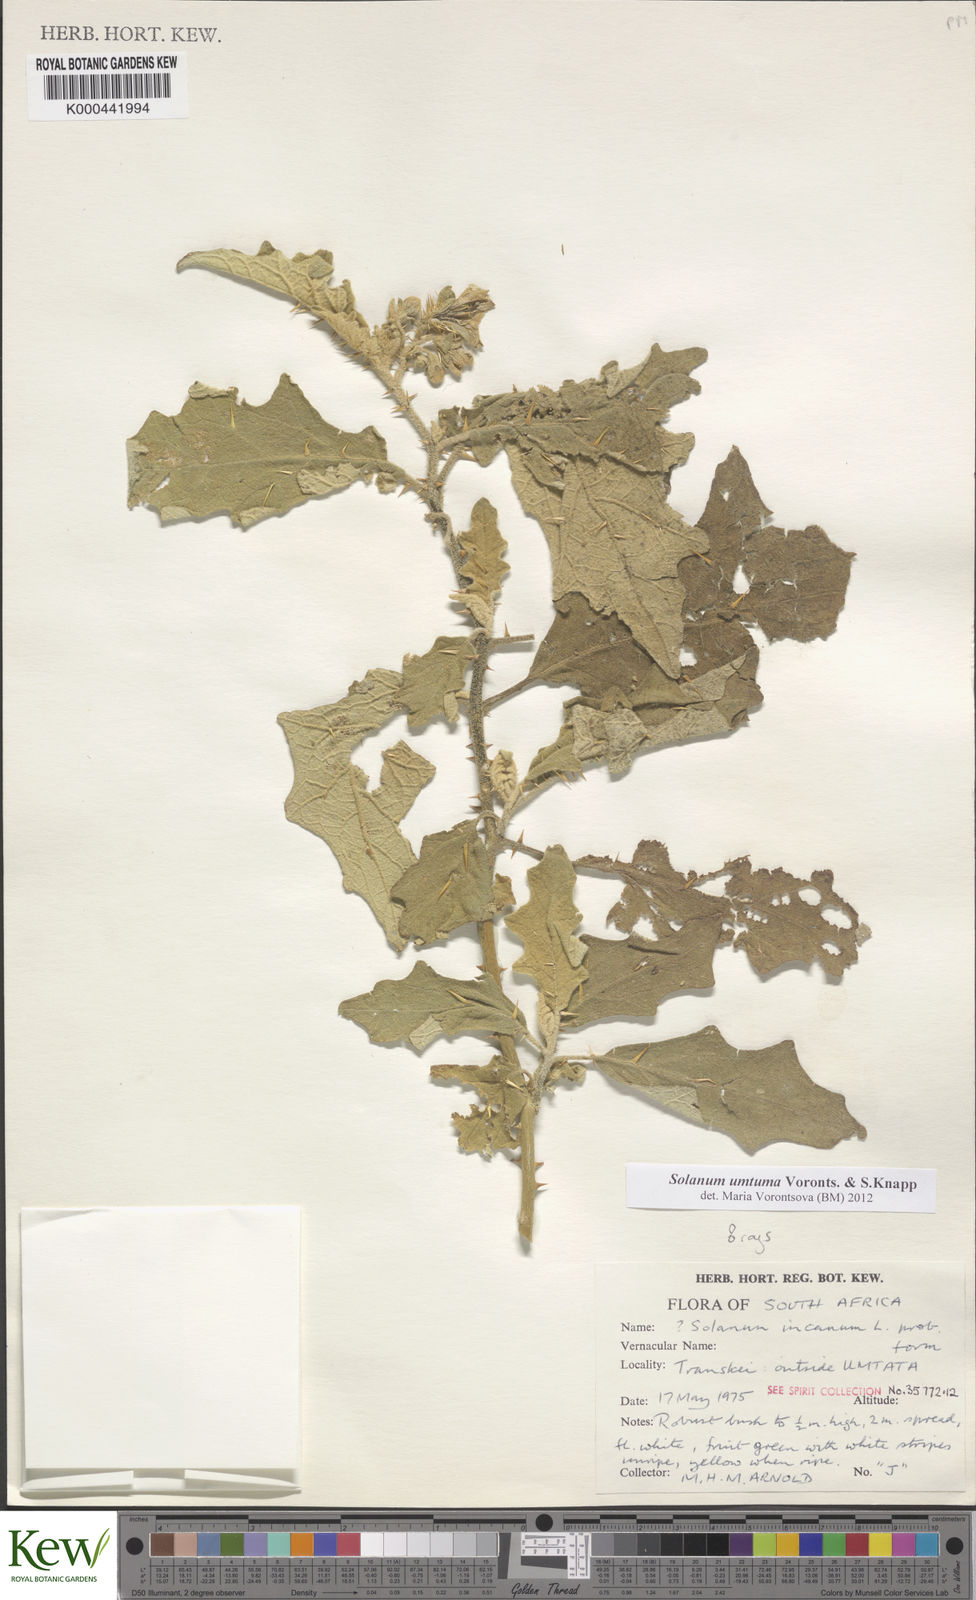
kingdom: Plantae
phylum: Tracheophyta
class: Magnoliopsida
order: Solanales
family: Solanaceae
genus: Solanum
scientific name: Solanum umtuma
